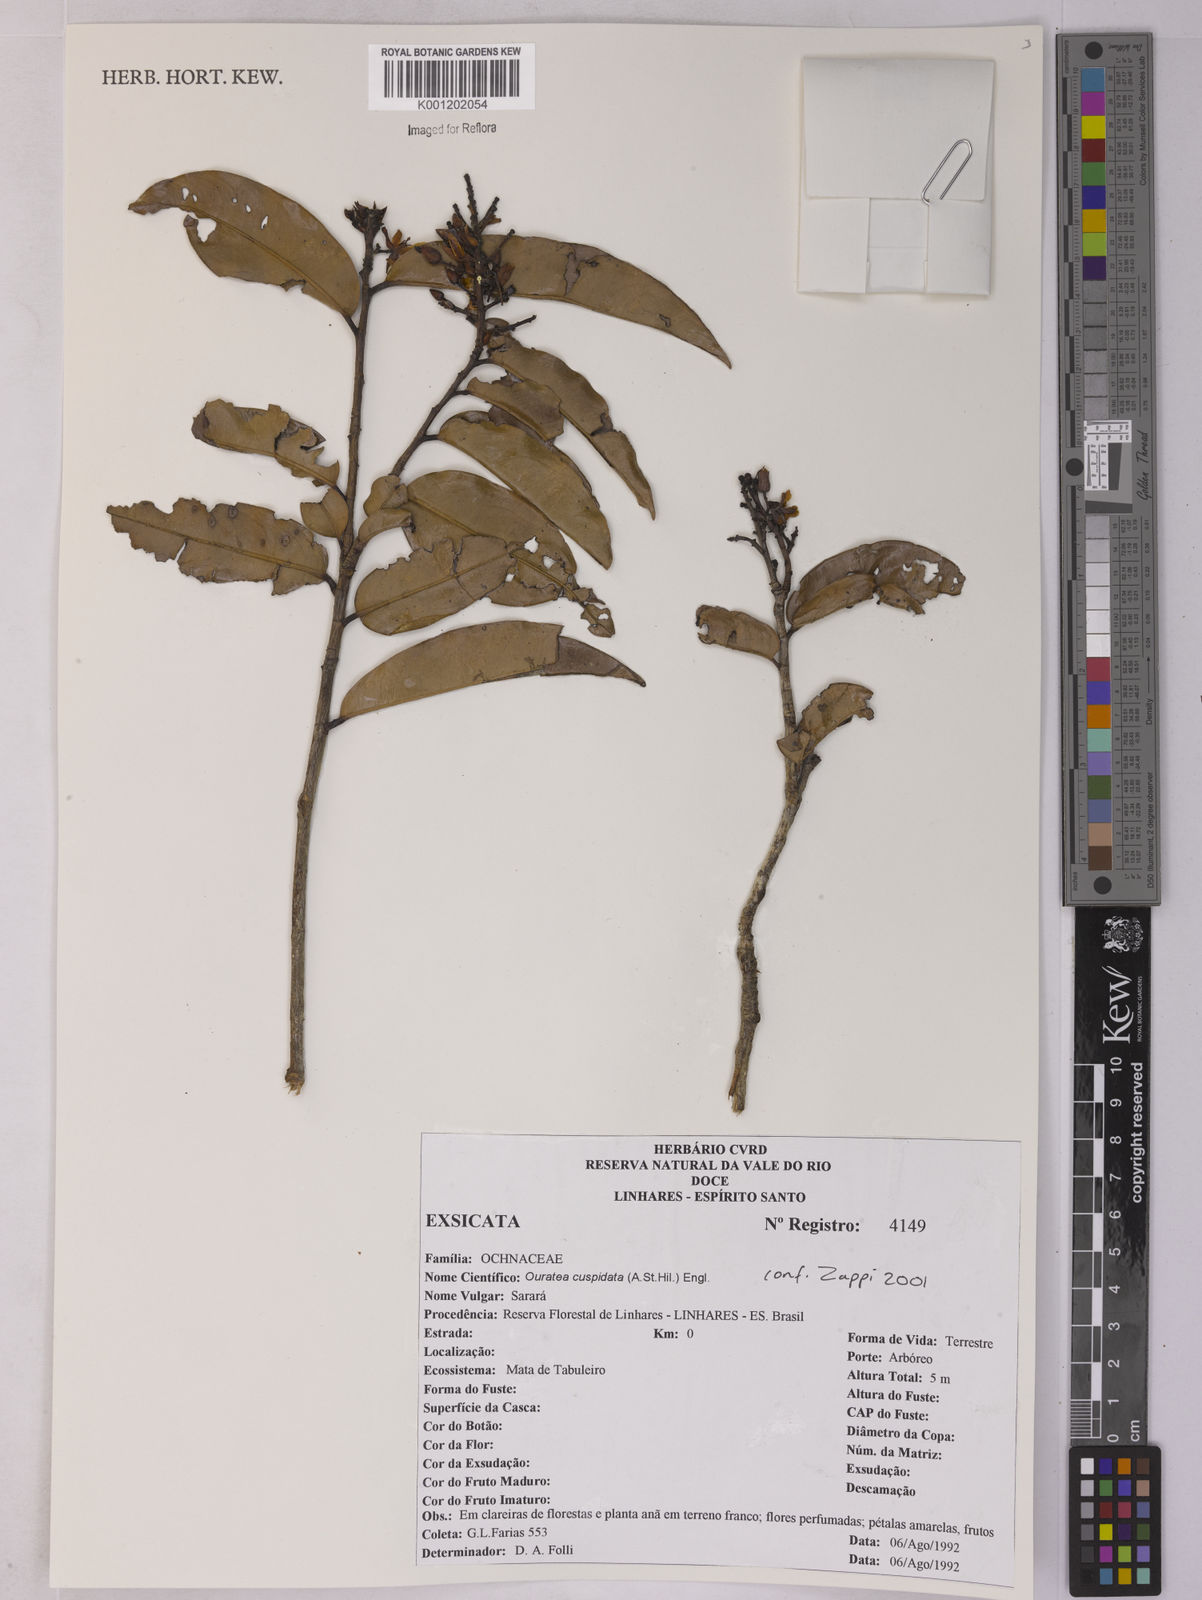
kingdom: Plantae
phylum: Tracheophyta
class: Magnoliopsida
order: Malpighiales
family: Ochnaceae
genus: Ouratea
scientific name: Ouratea cuspidata
